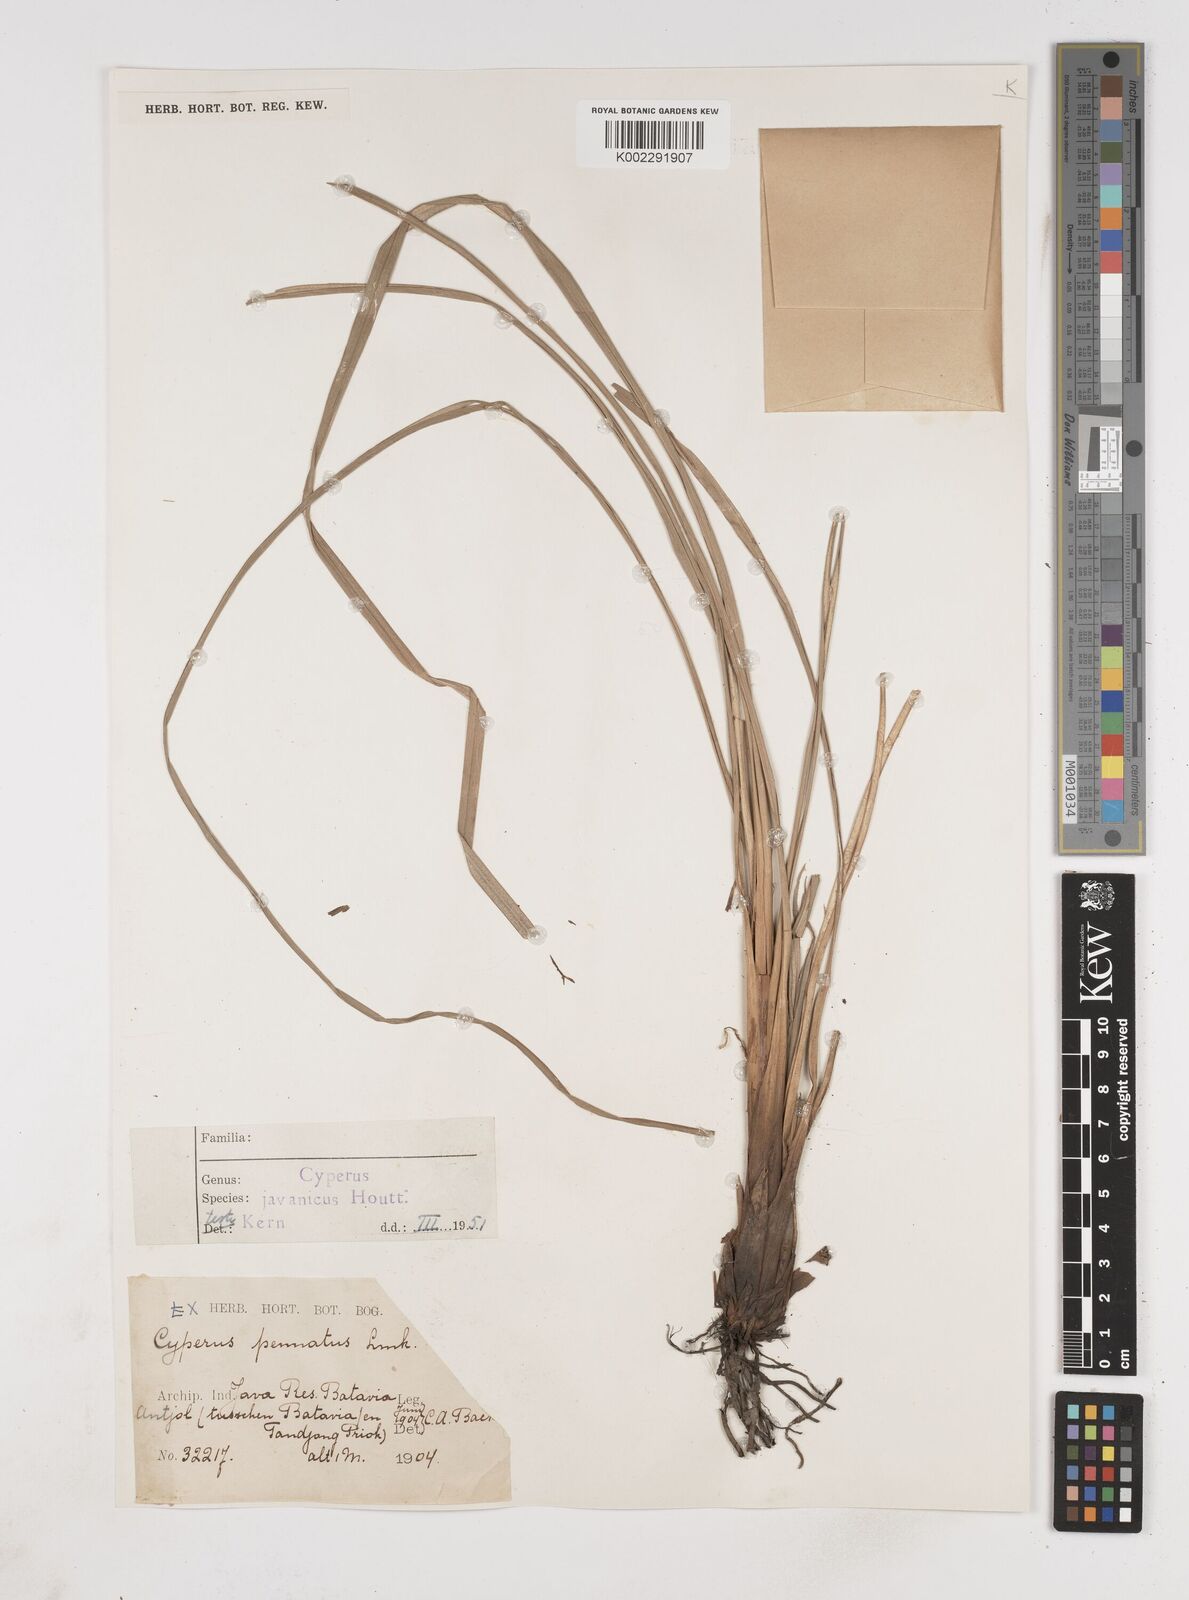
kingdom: Plantae
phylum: Tracheophyta
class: Liliopsida
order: Poales
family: Cyperaceae
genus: Cyperus
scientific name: Cyperus javanicus
